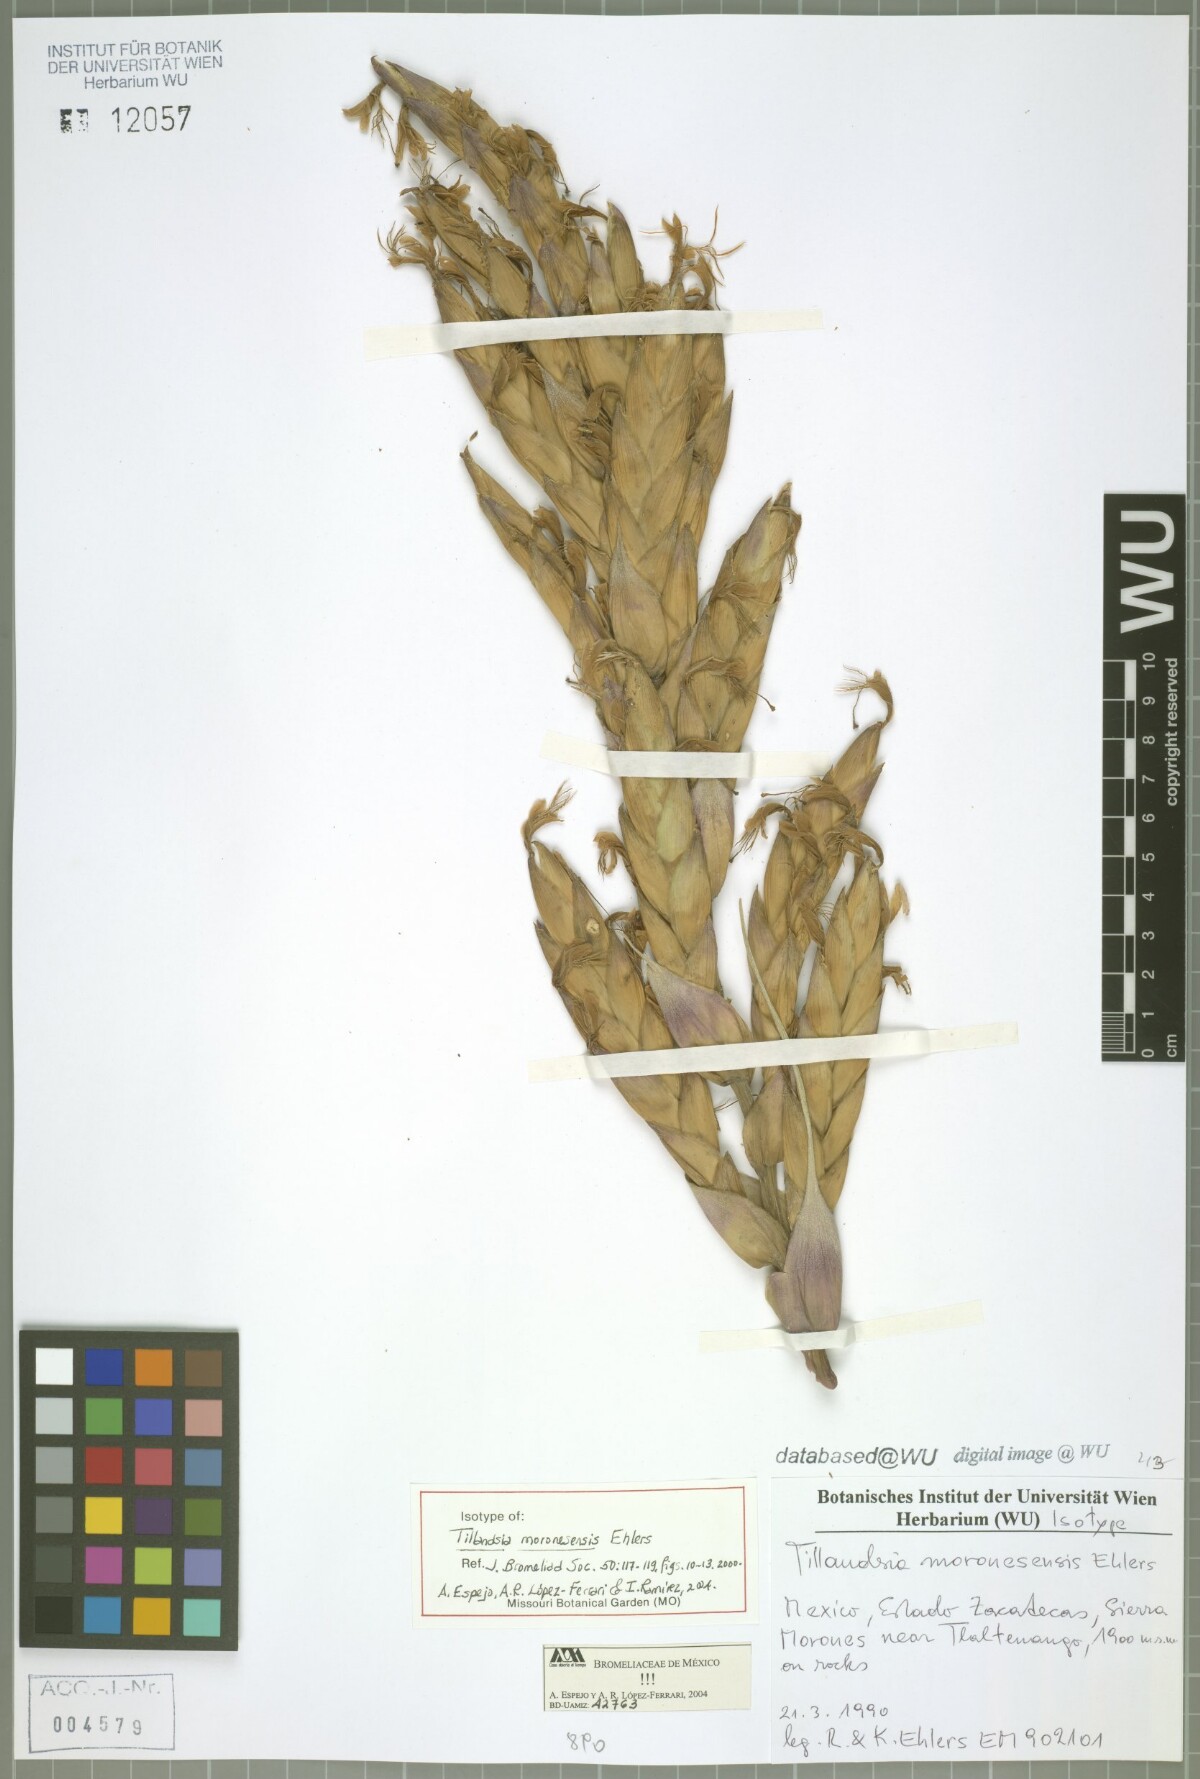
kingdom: Plantae
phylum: Tracheophyta
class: Liliopsida
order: Poales
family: Bromeliaceae
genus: Tillandsia
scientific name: Tillandsia moronesensis
